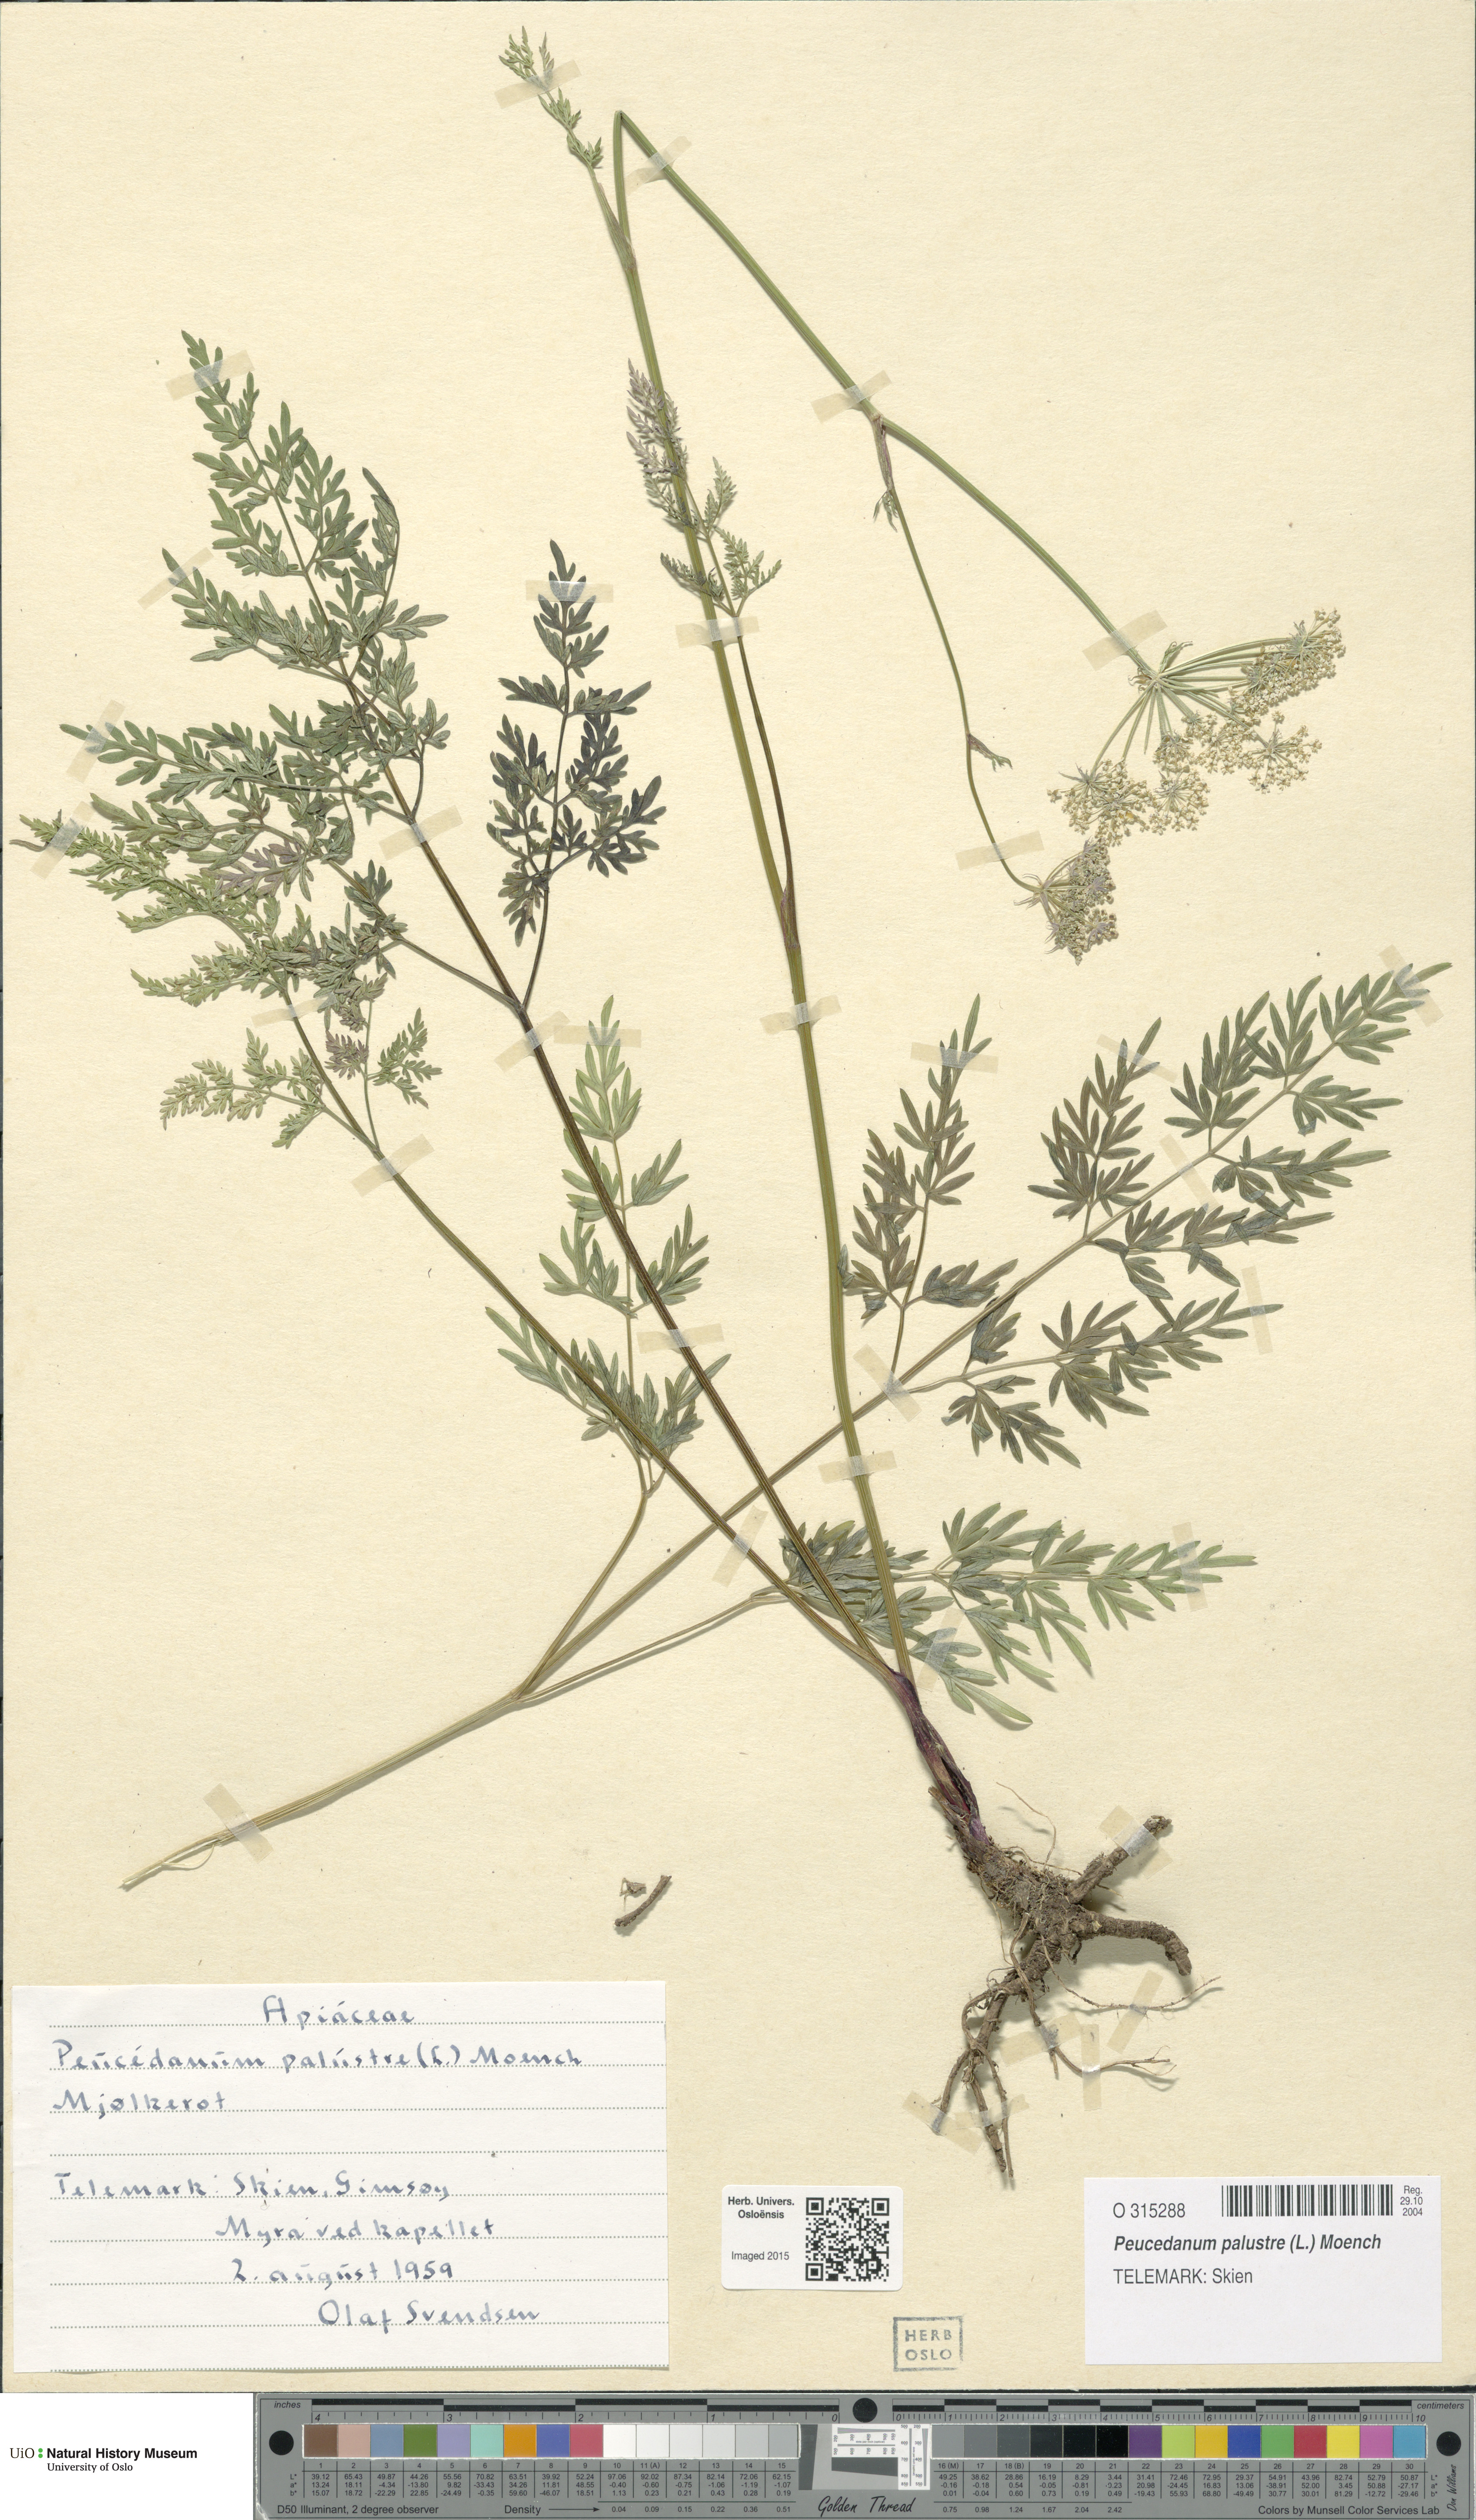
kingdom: Plantae
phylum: Tracheophyta
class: Magnoliopsida
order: Apiales
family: Apiaceae
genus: Thysselinum
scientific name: Thysselinum palustre
